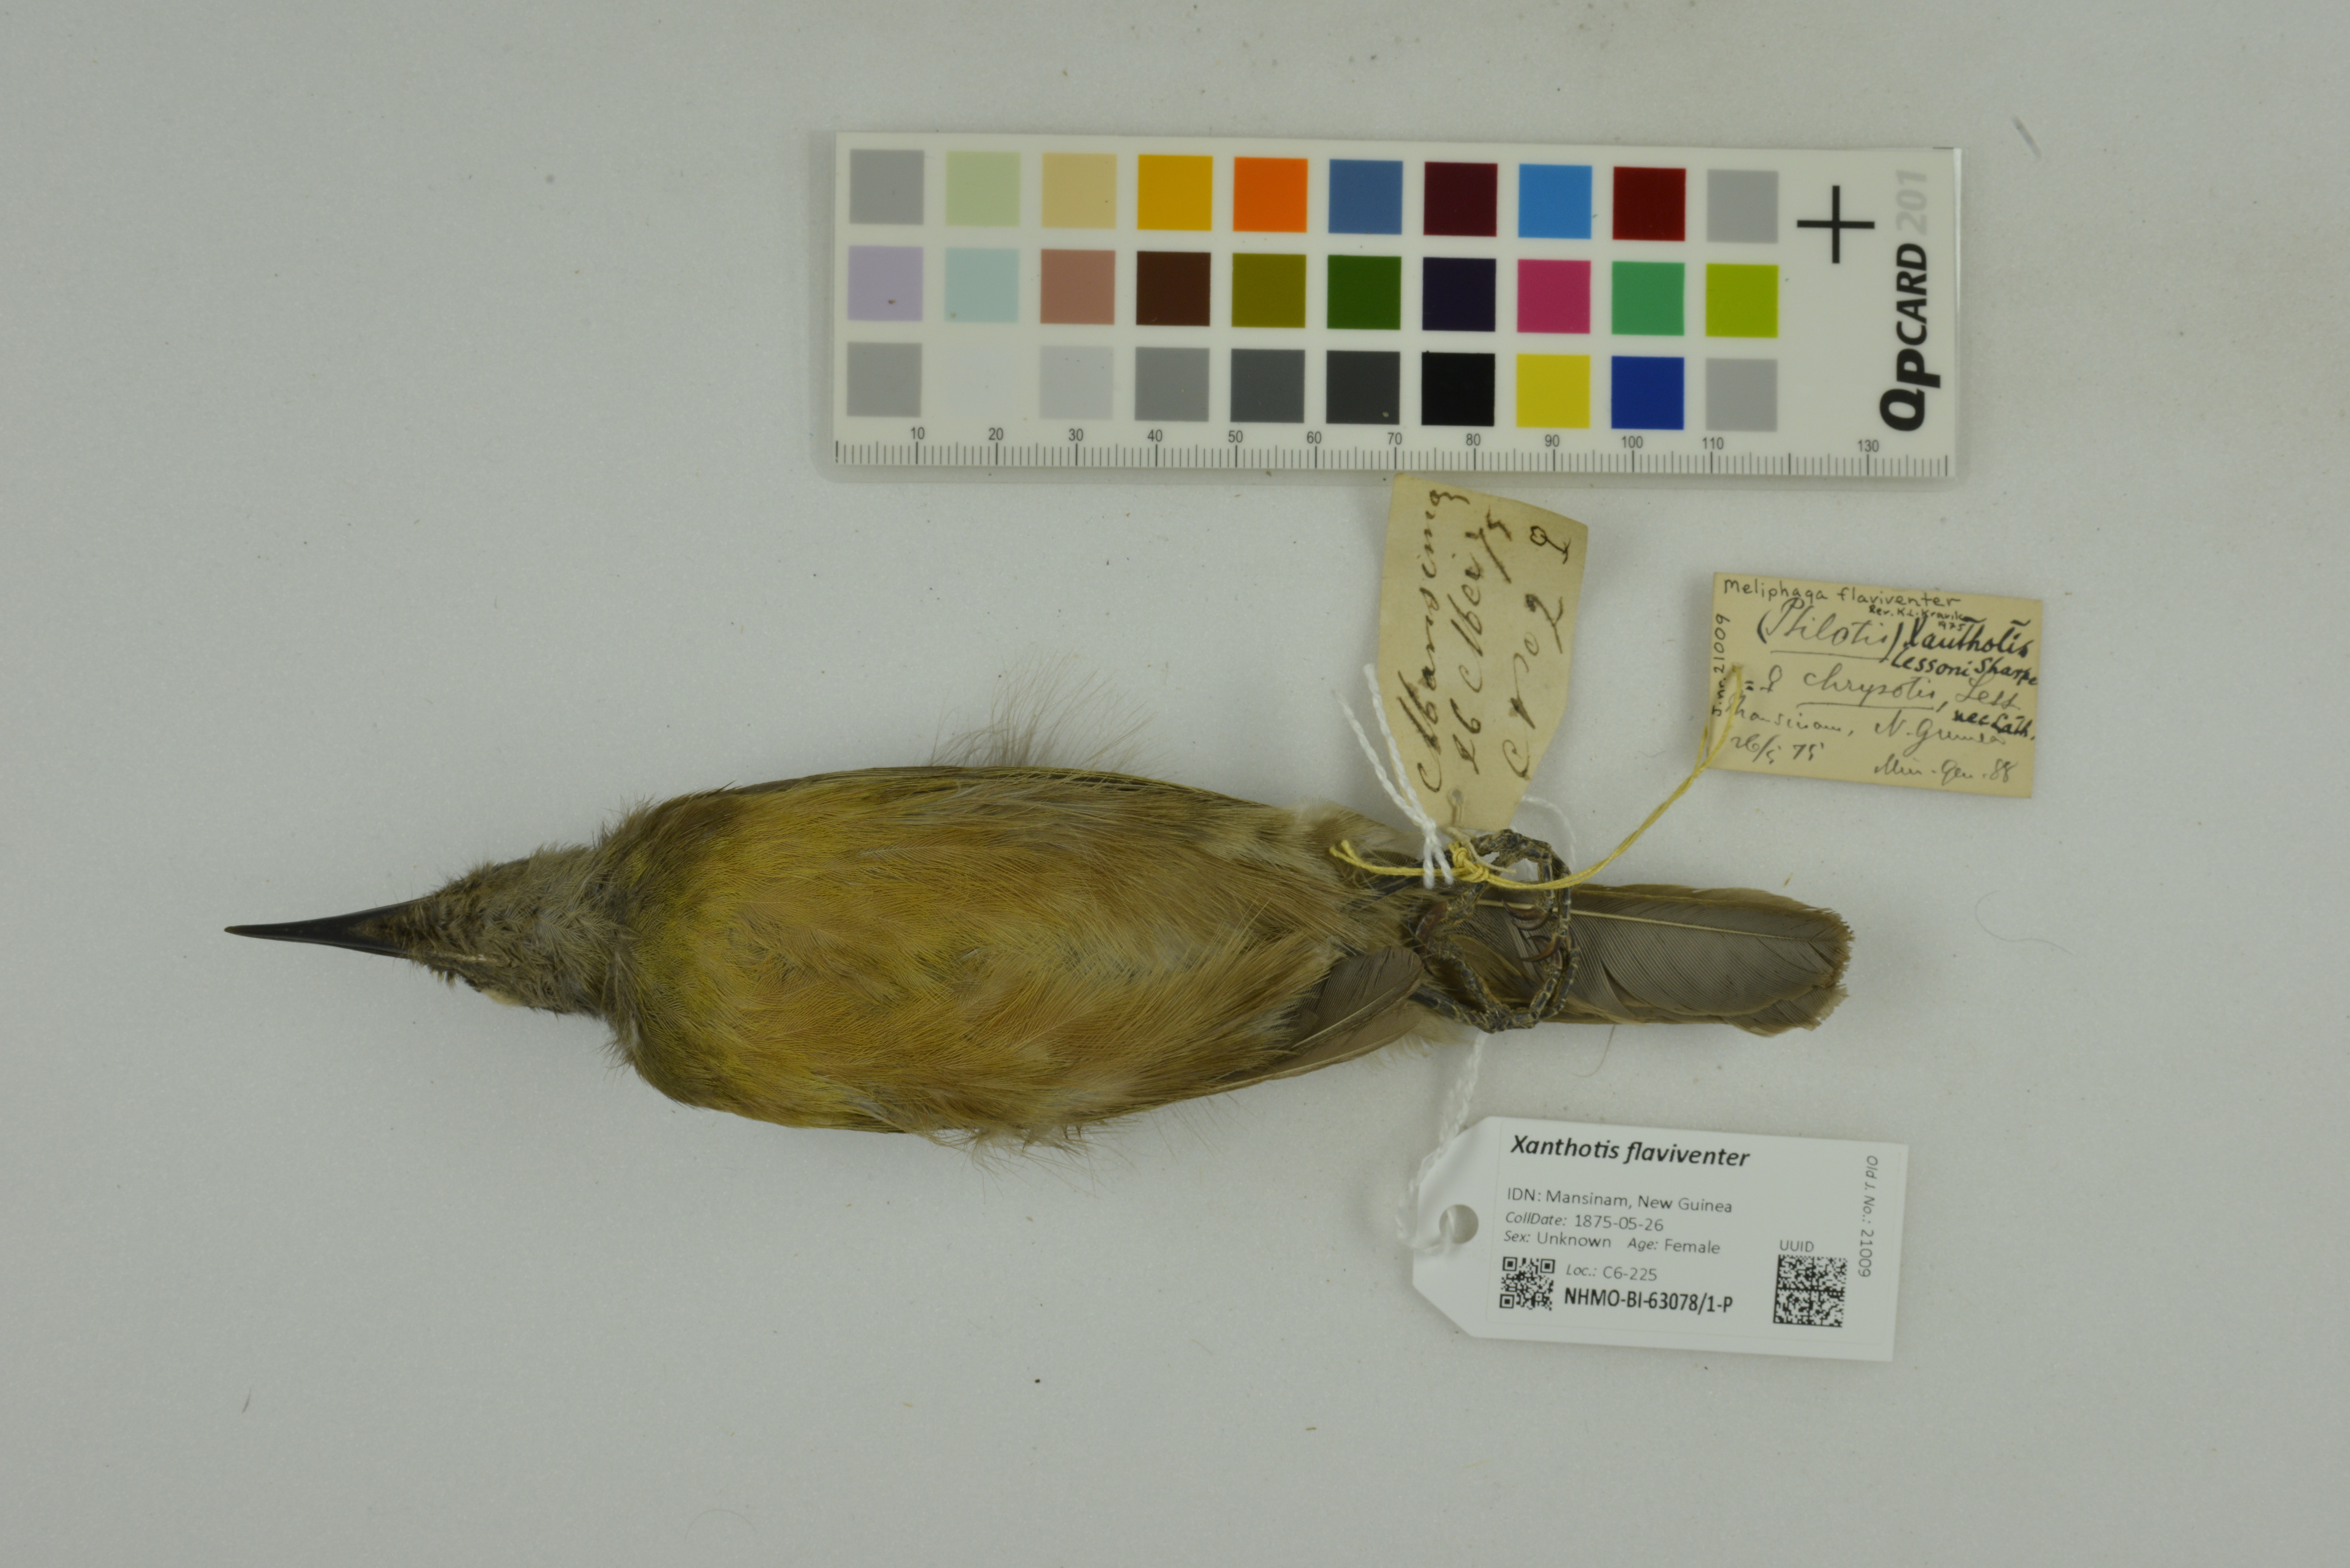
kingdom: Animalia
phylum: Chordata
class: Aves
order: Passeriformes
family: Meliphagidae
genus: Xanthotis
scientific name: Xanthotis flaviventer
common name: Tawny-breasted honeyeater
